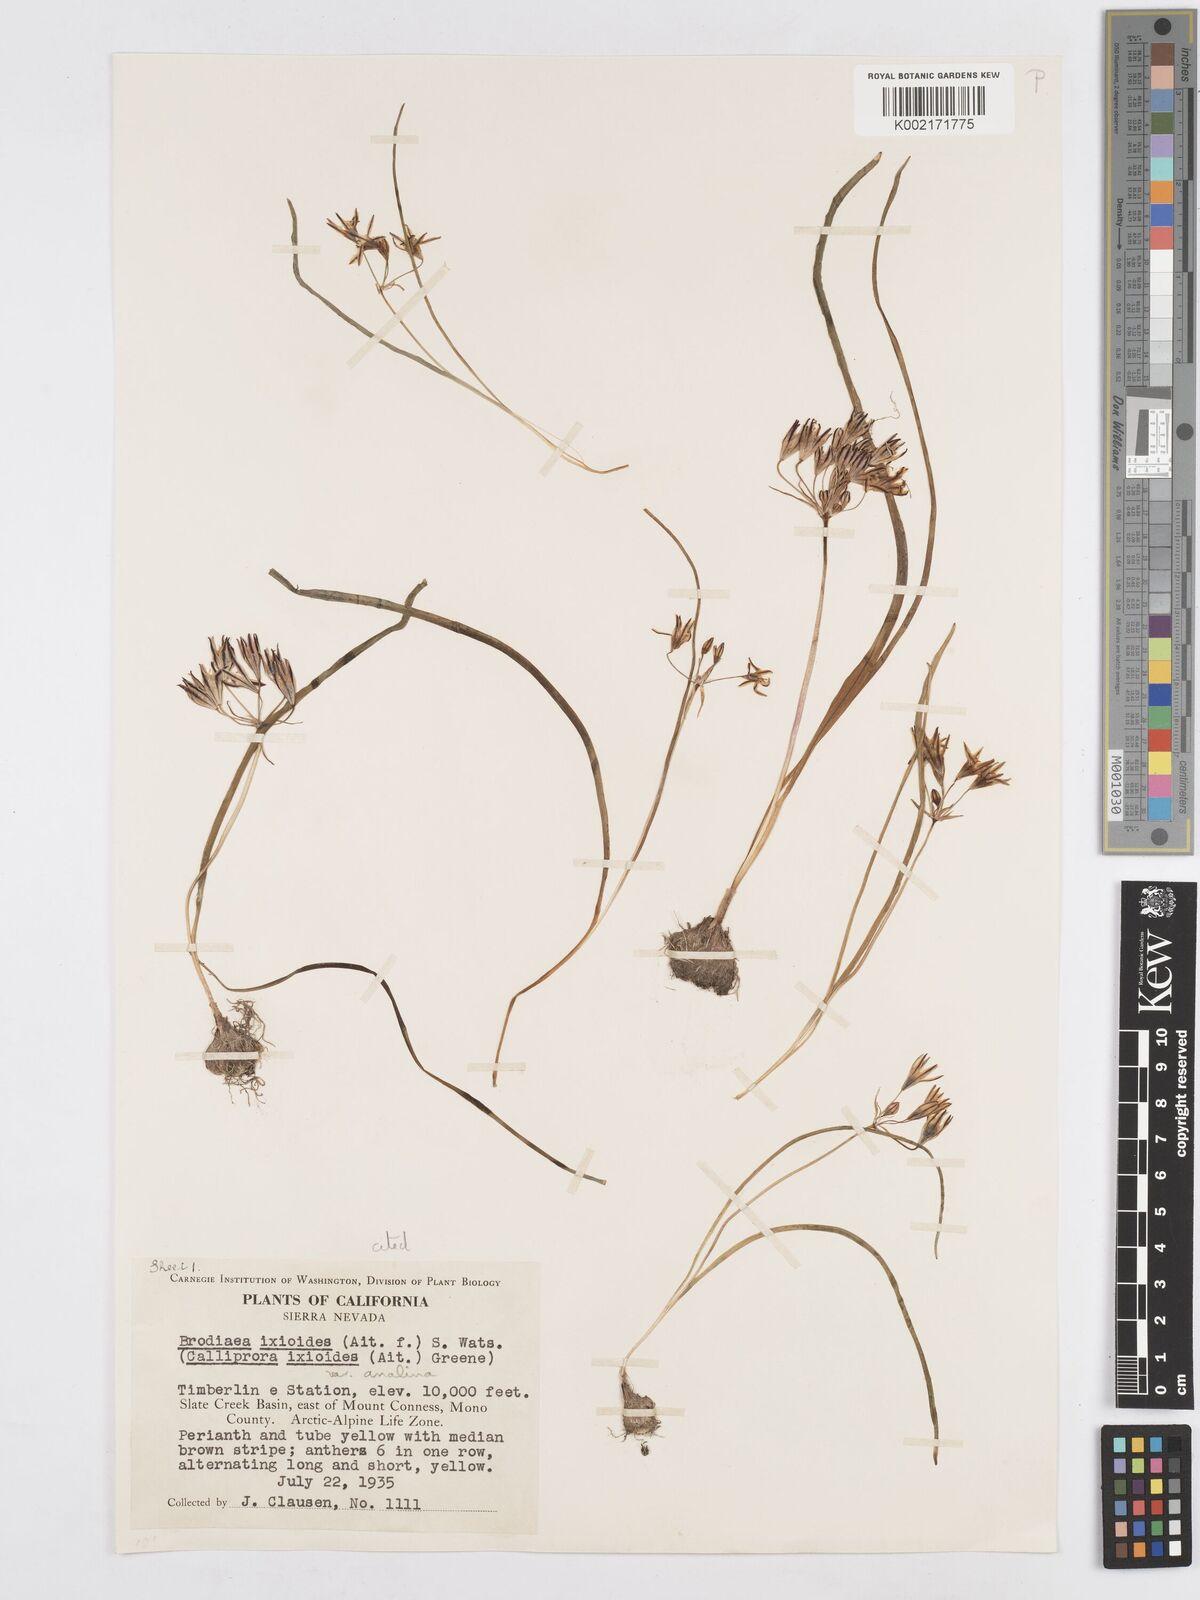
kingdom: Plantae
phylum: Tracheophyta
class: Liliopsida
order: Asparagales
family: Asparagaceae
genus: Triteleia
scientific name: Triteleia ixioides
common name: Yellow-brodiaea
